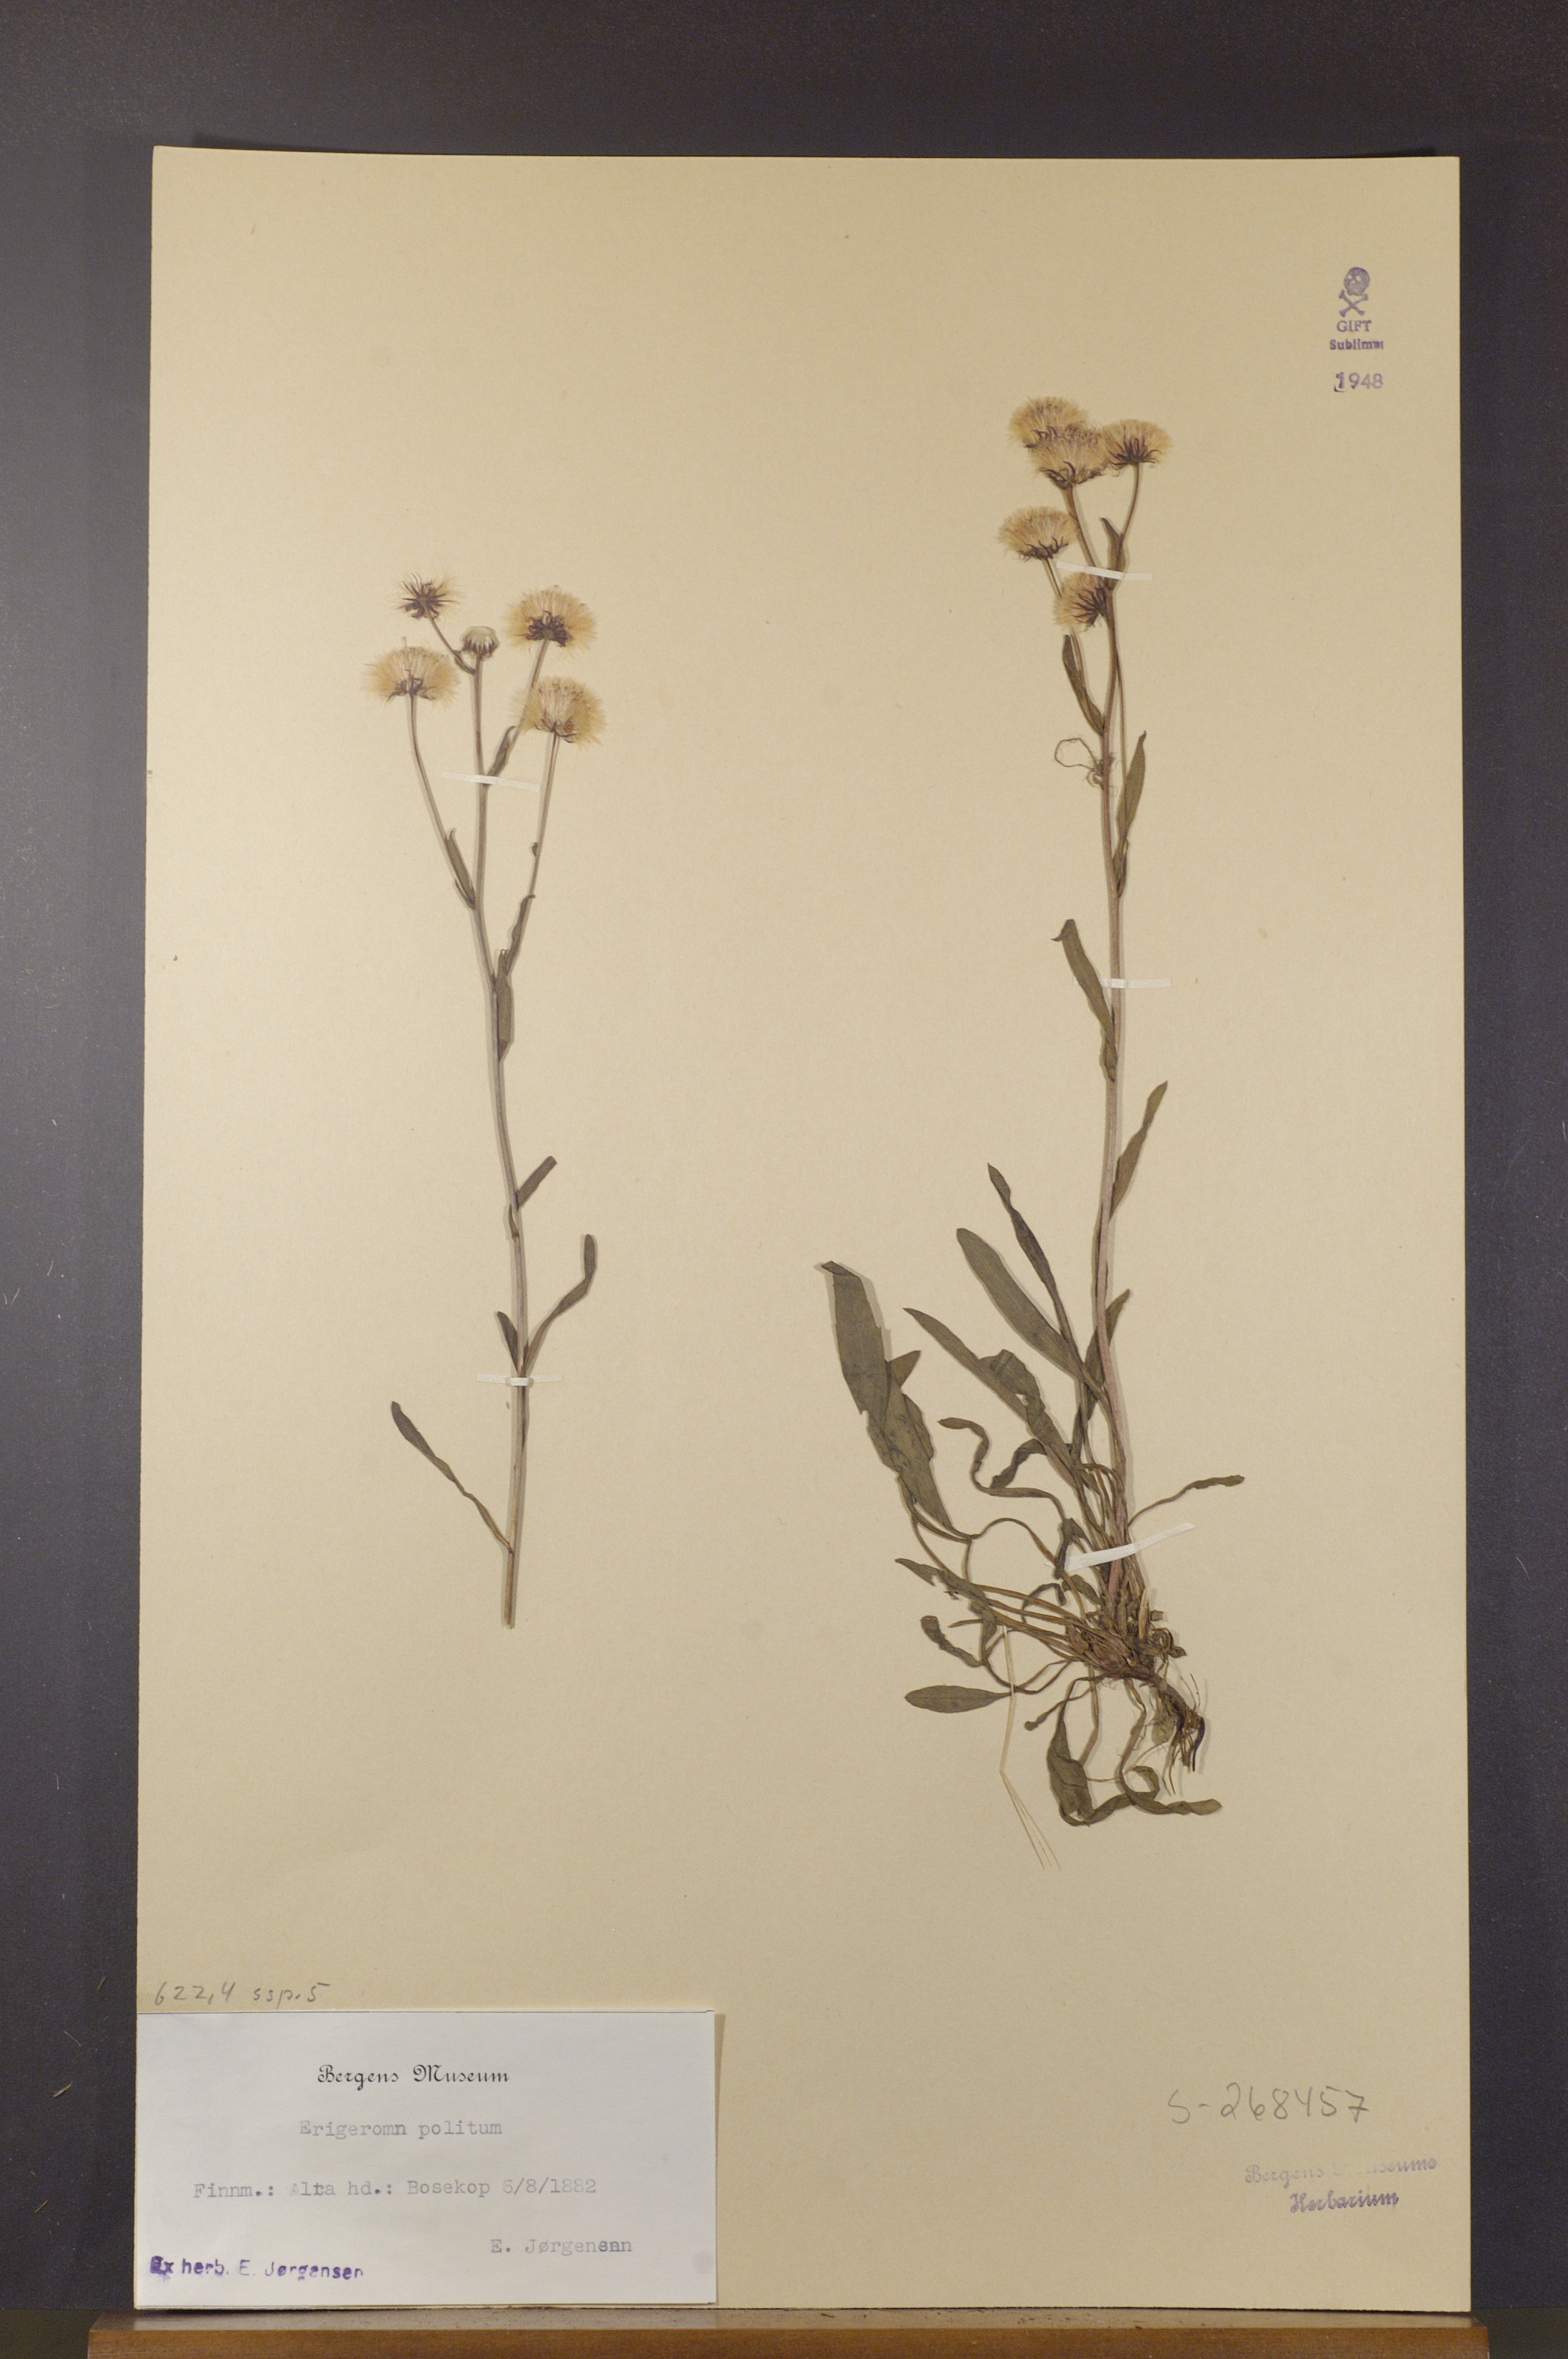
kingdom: Plantae
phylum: Tracheophyta
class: Magnoliopsida
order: Asterales
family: Asteraceae
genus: Erigeron
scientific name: Erigeron politus
